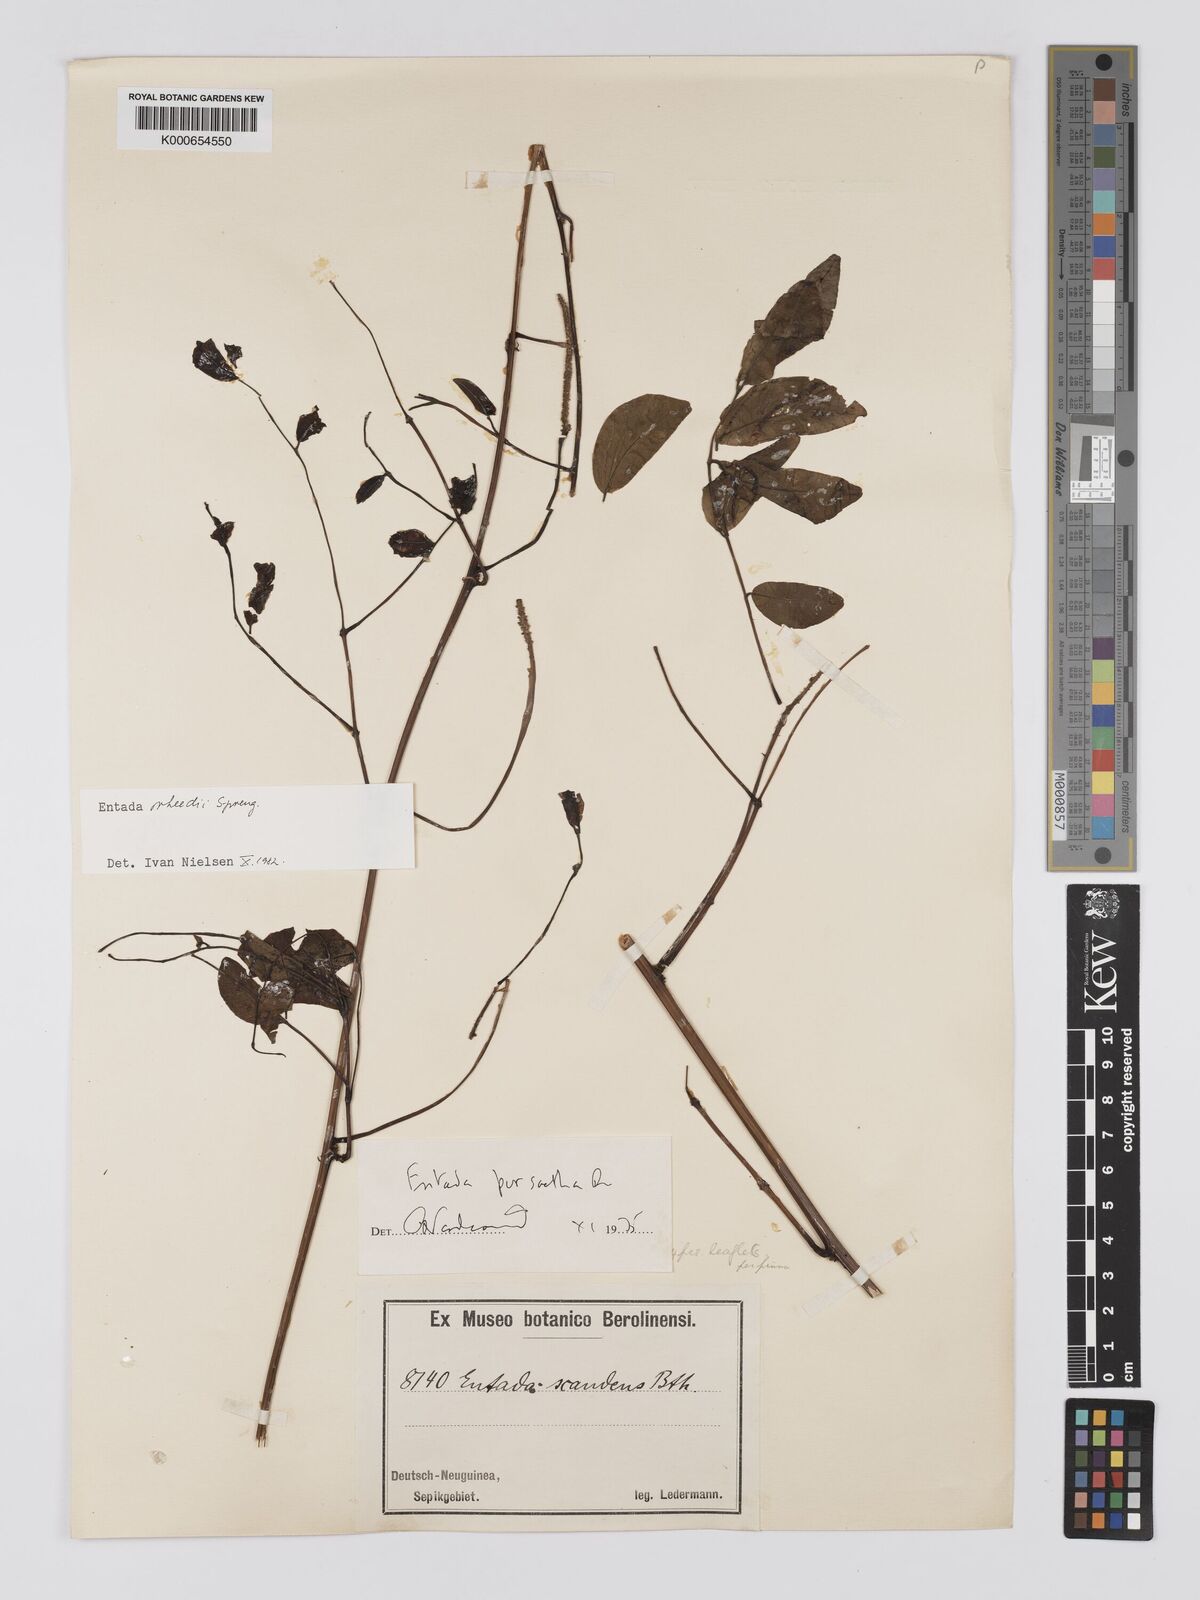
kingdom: Plantae
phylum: Tracheophyta
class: Magnoliopsida
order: Fabales
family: Fabaceae
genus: Entada
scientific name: Entada rheedei
